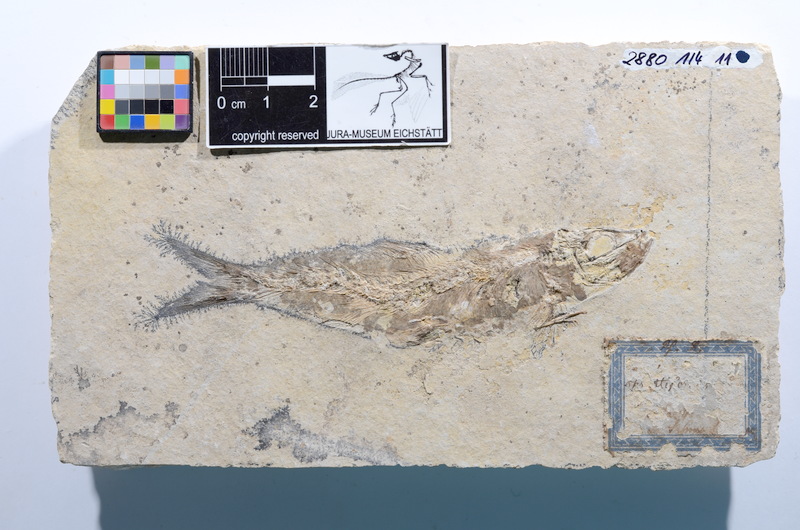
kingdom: Animalia
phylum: Chordata
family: Ascalaboidae
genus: Tharsis
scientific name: Tharsis dubius
